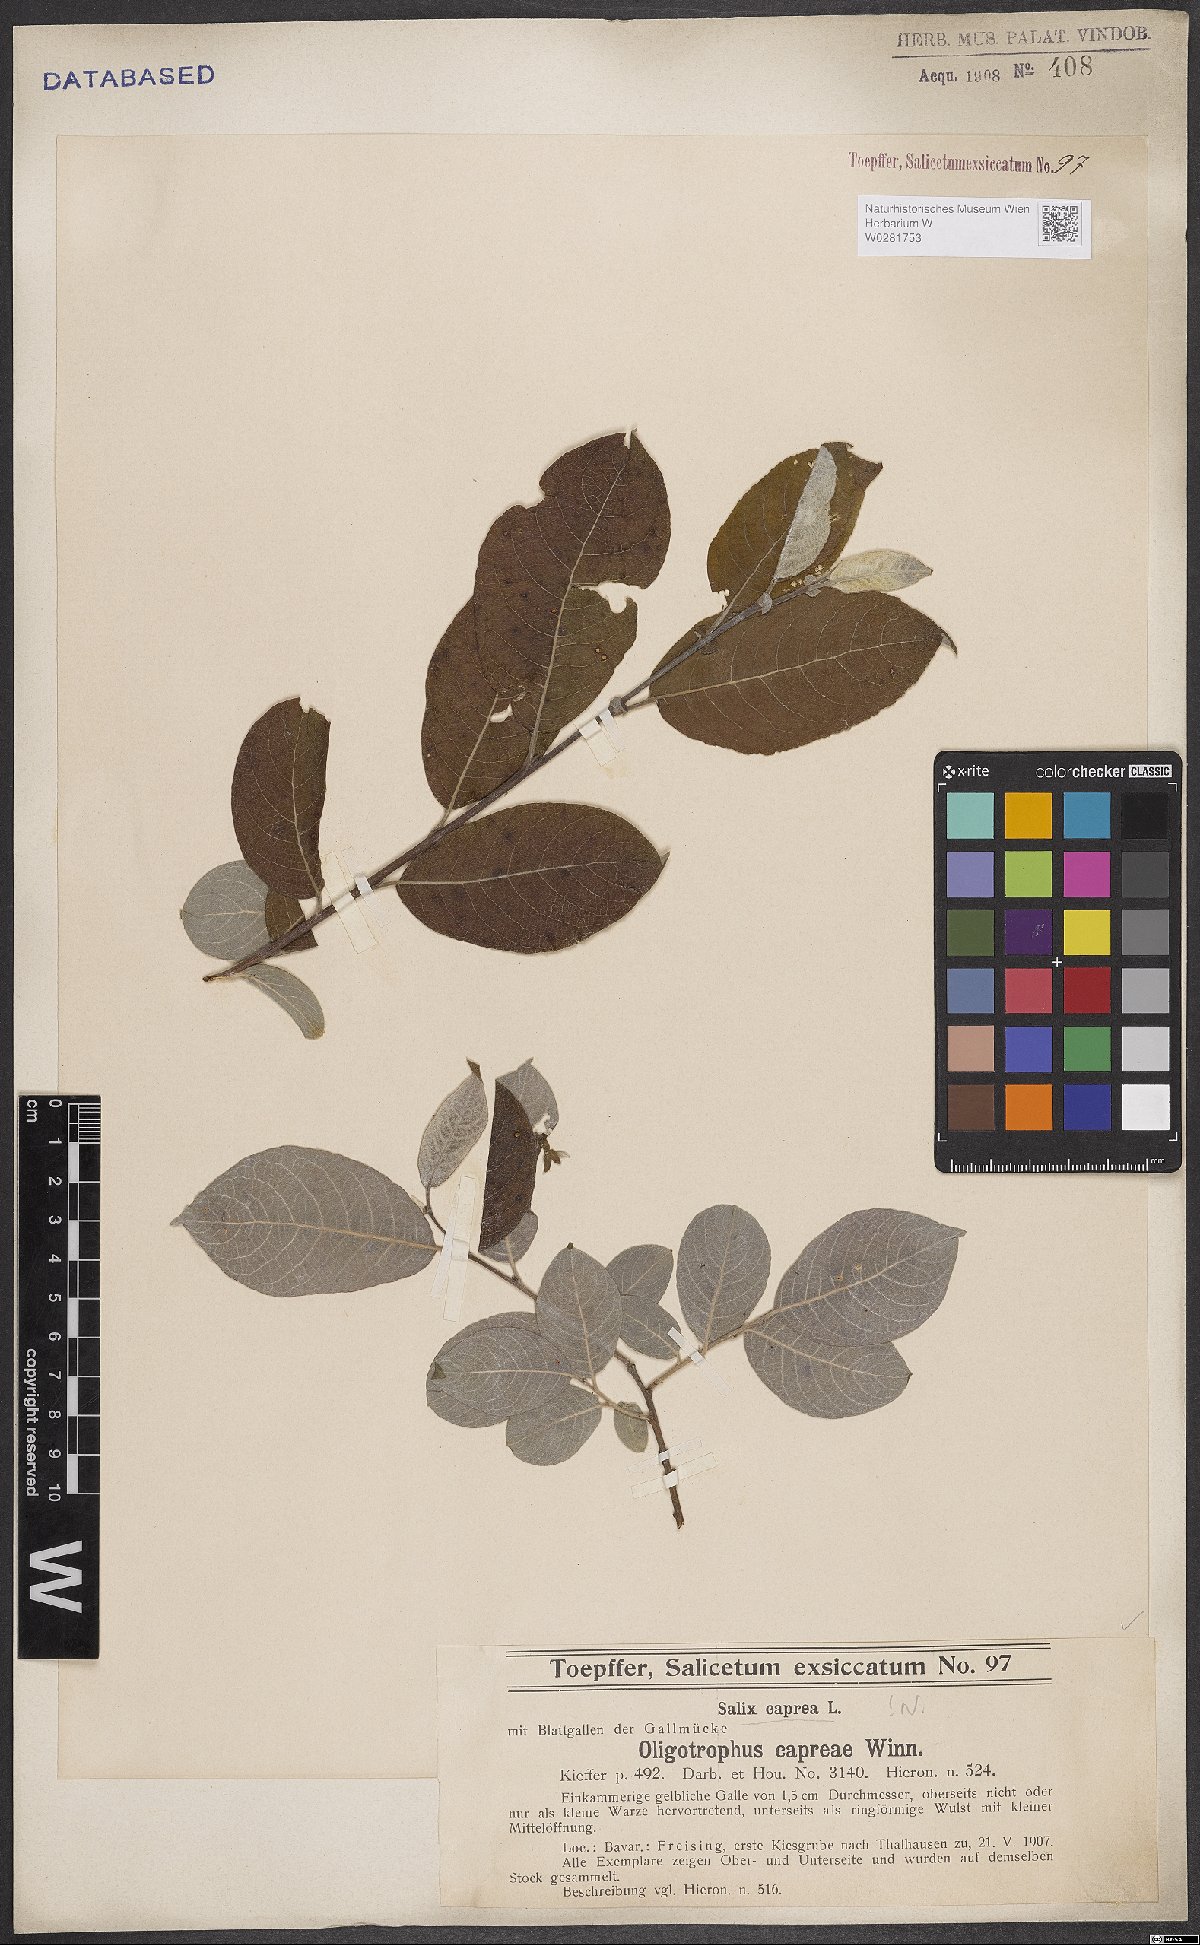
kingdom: Plantae
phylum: Tracheophyta
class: Magnoliopsida
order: Malpighiales
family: Salicaceae
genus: Salix
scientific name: Salix caprea
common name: Goat willow
